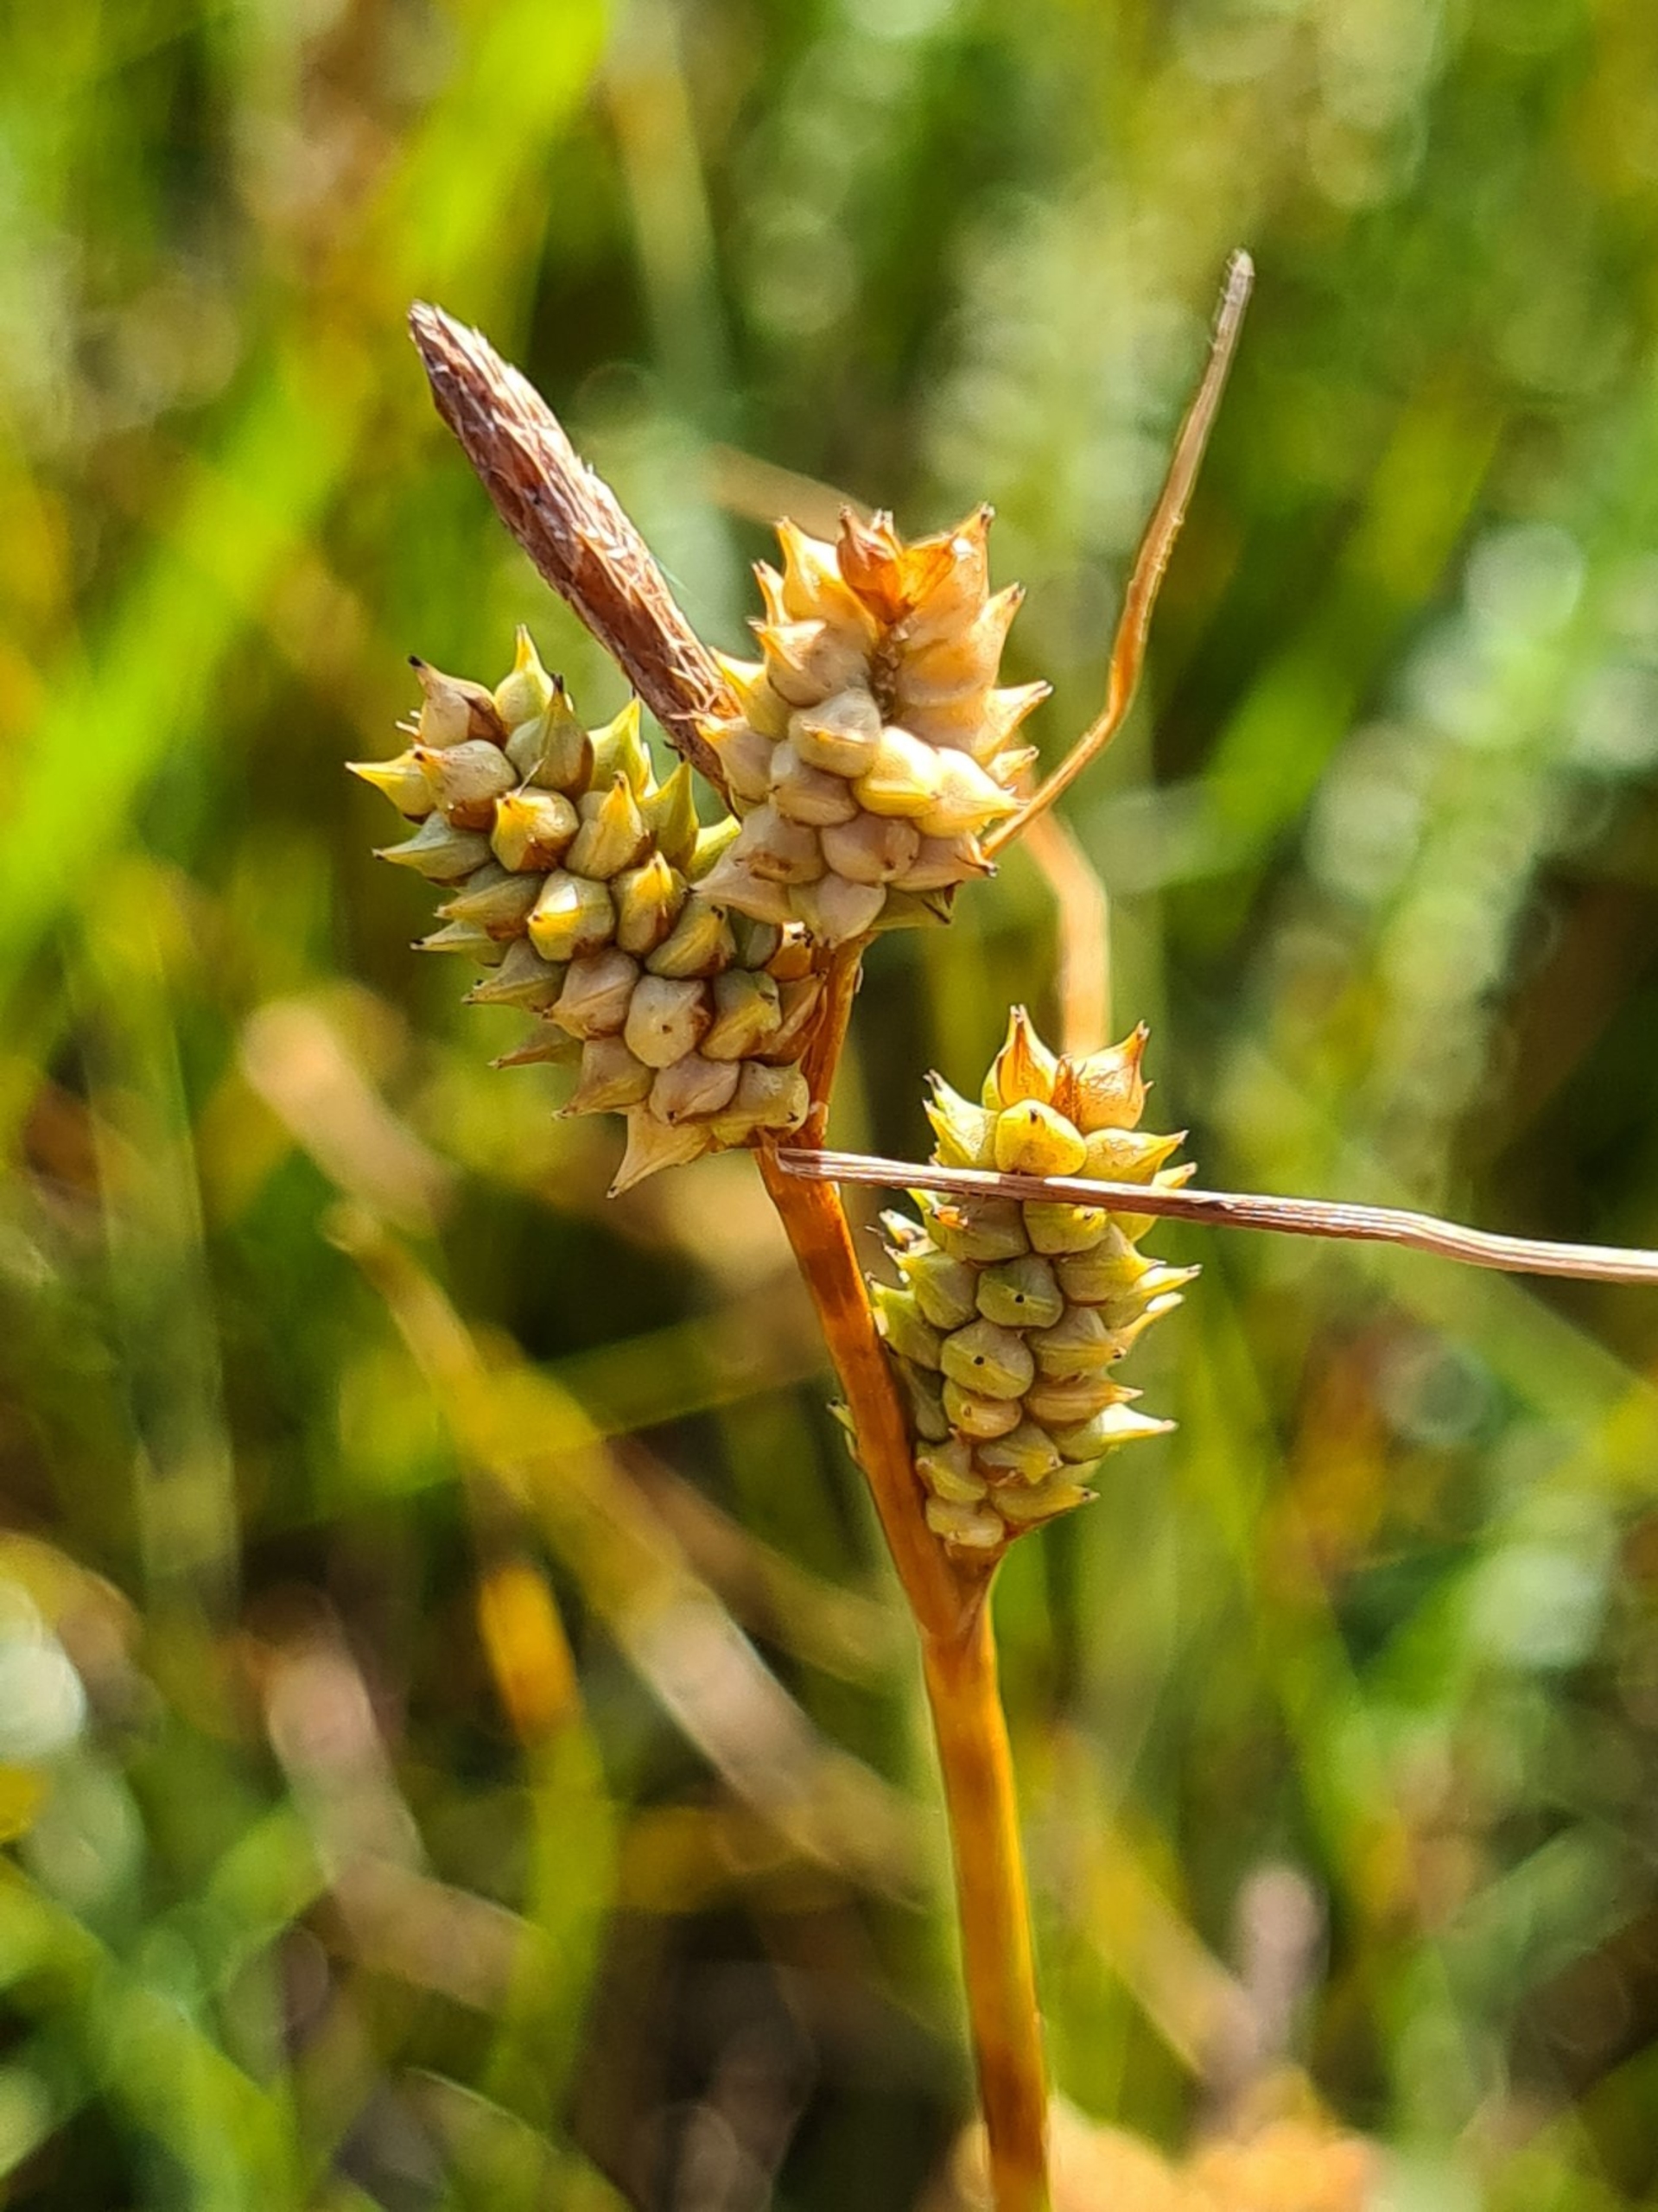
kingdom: Plantae
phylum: Tracheophyta
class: Liliopsida
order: Poales
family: Cyperaceae
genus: Carex
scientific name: Carex oederi
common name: Høst-star
